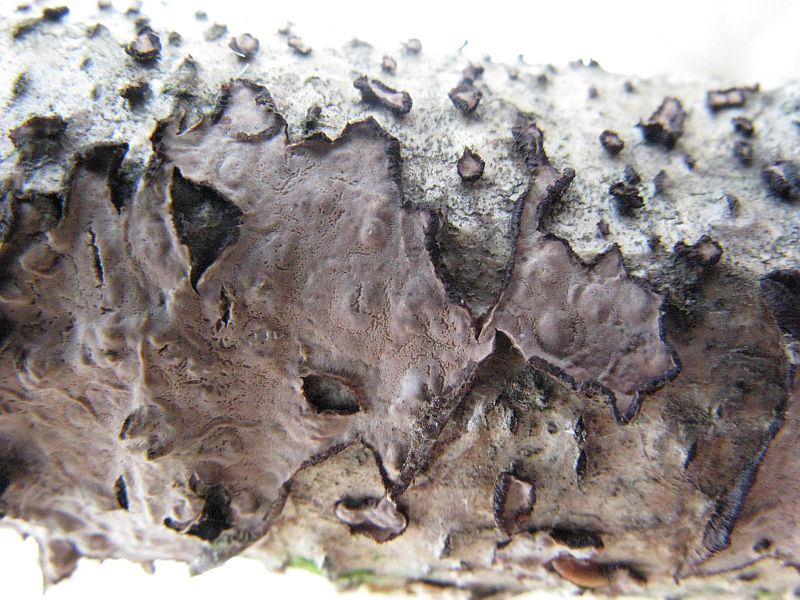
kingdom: Fungi
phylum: Basidiomycota
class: Agaricomycetes
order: Russulales
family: Peniophoraceae
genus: Peniophora
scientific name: Peniophora quercina
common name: ege-voksskind
